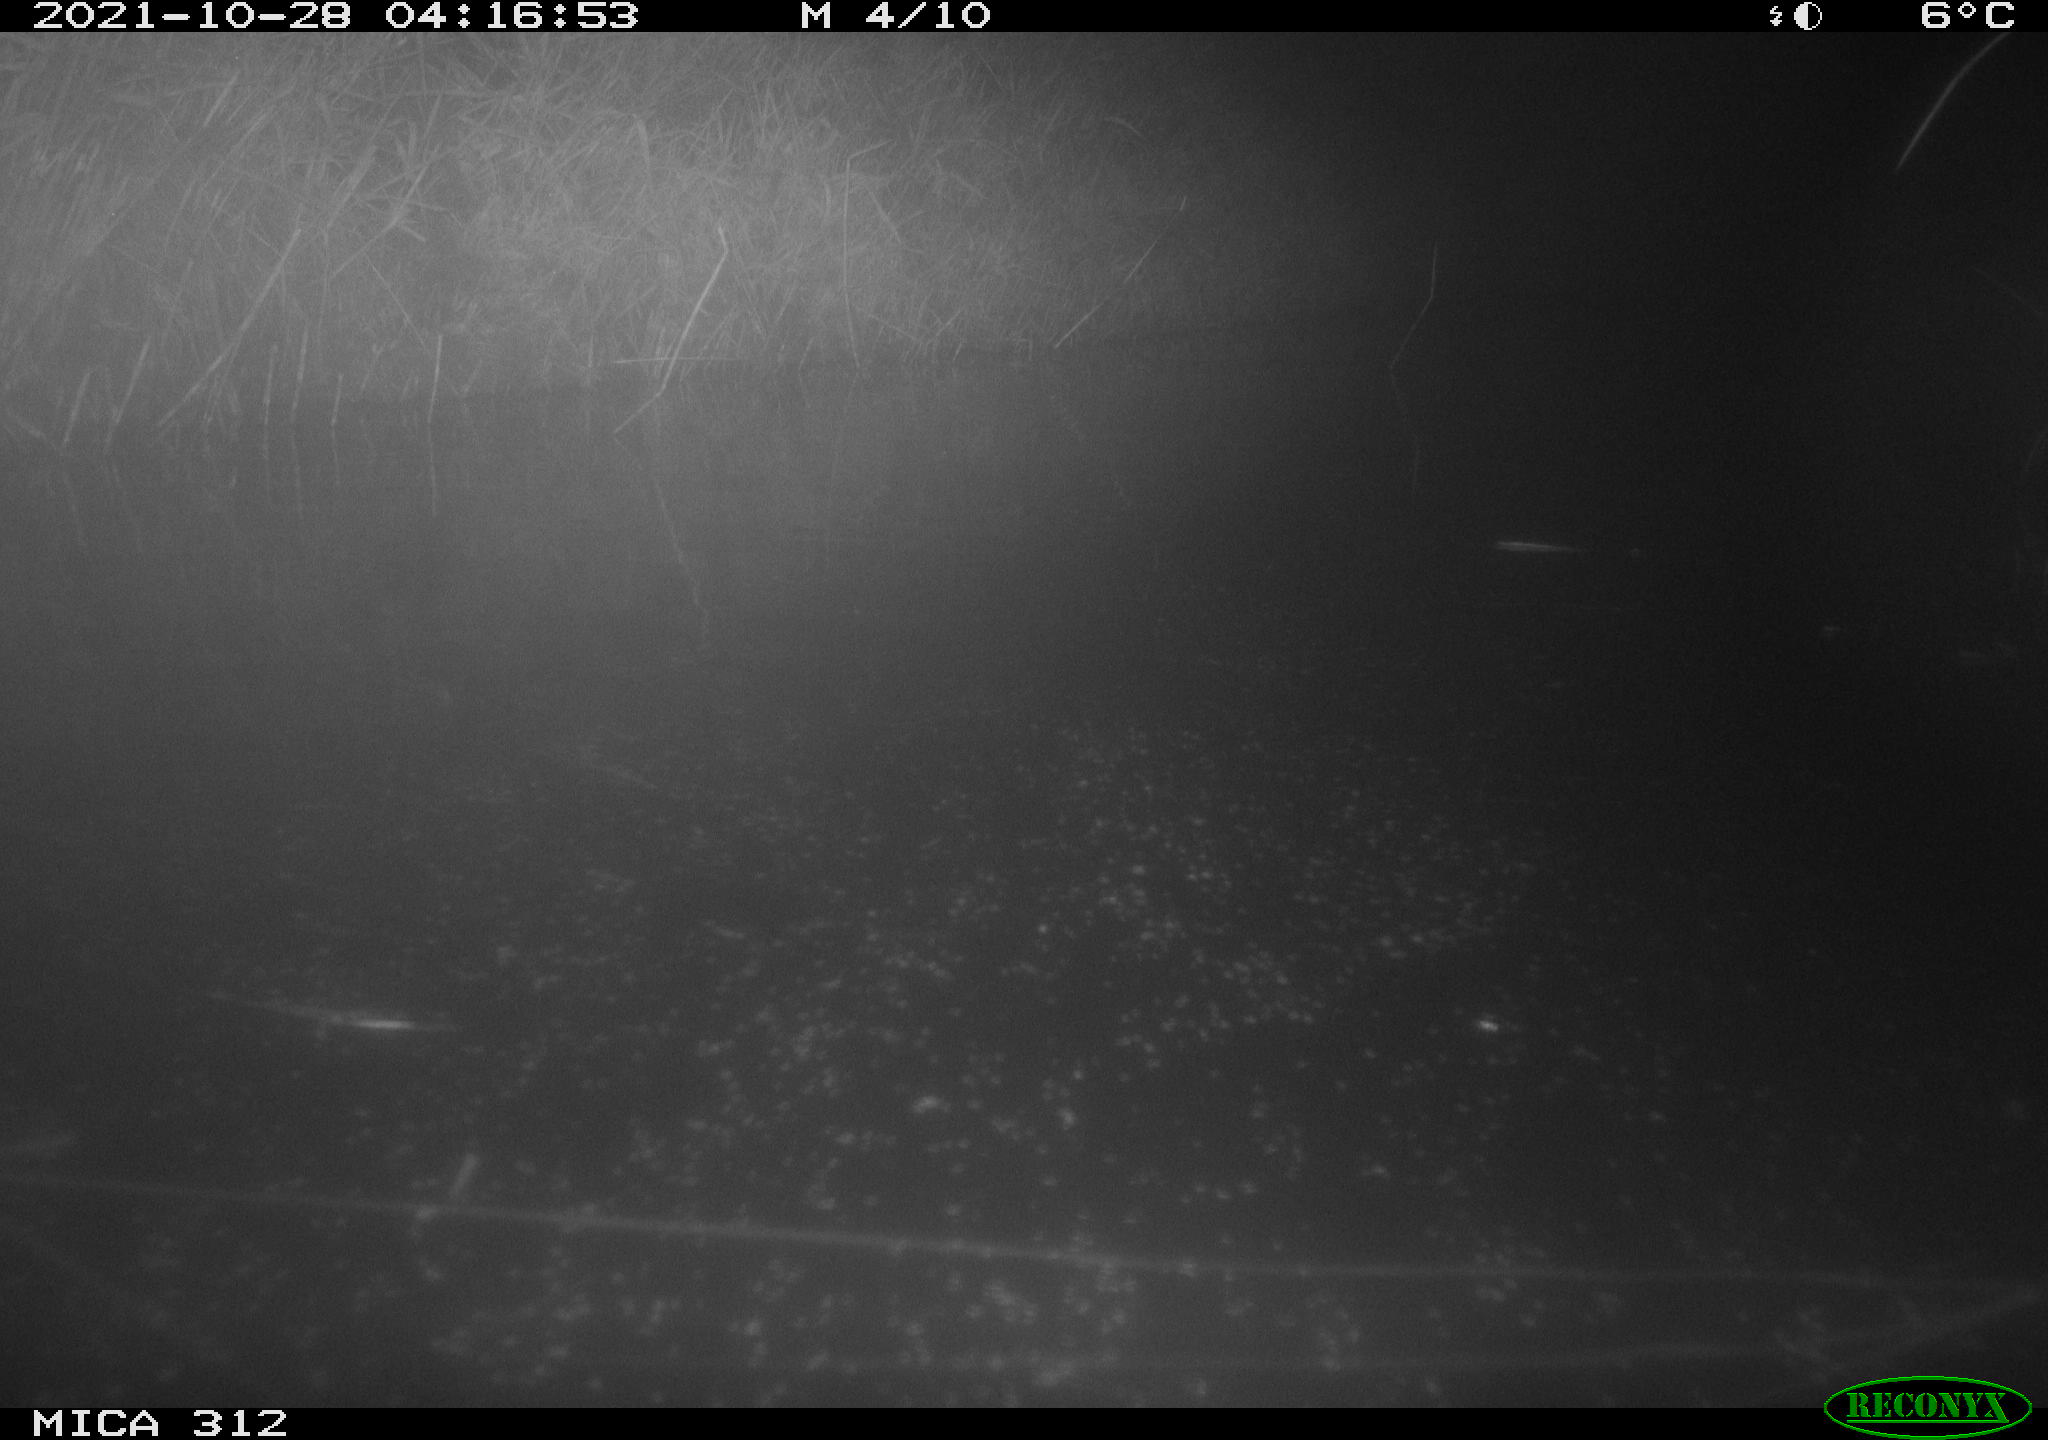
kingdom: Animalia
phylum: Chordata
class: Mammalia
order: Rodentia
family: Muridae
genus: Rattus
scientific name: Rattus norvegicus
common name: Brown rat
